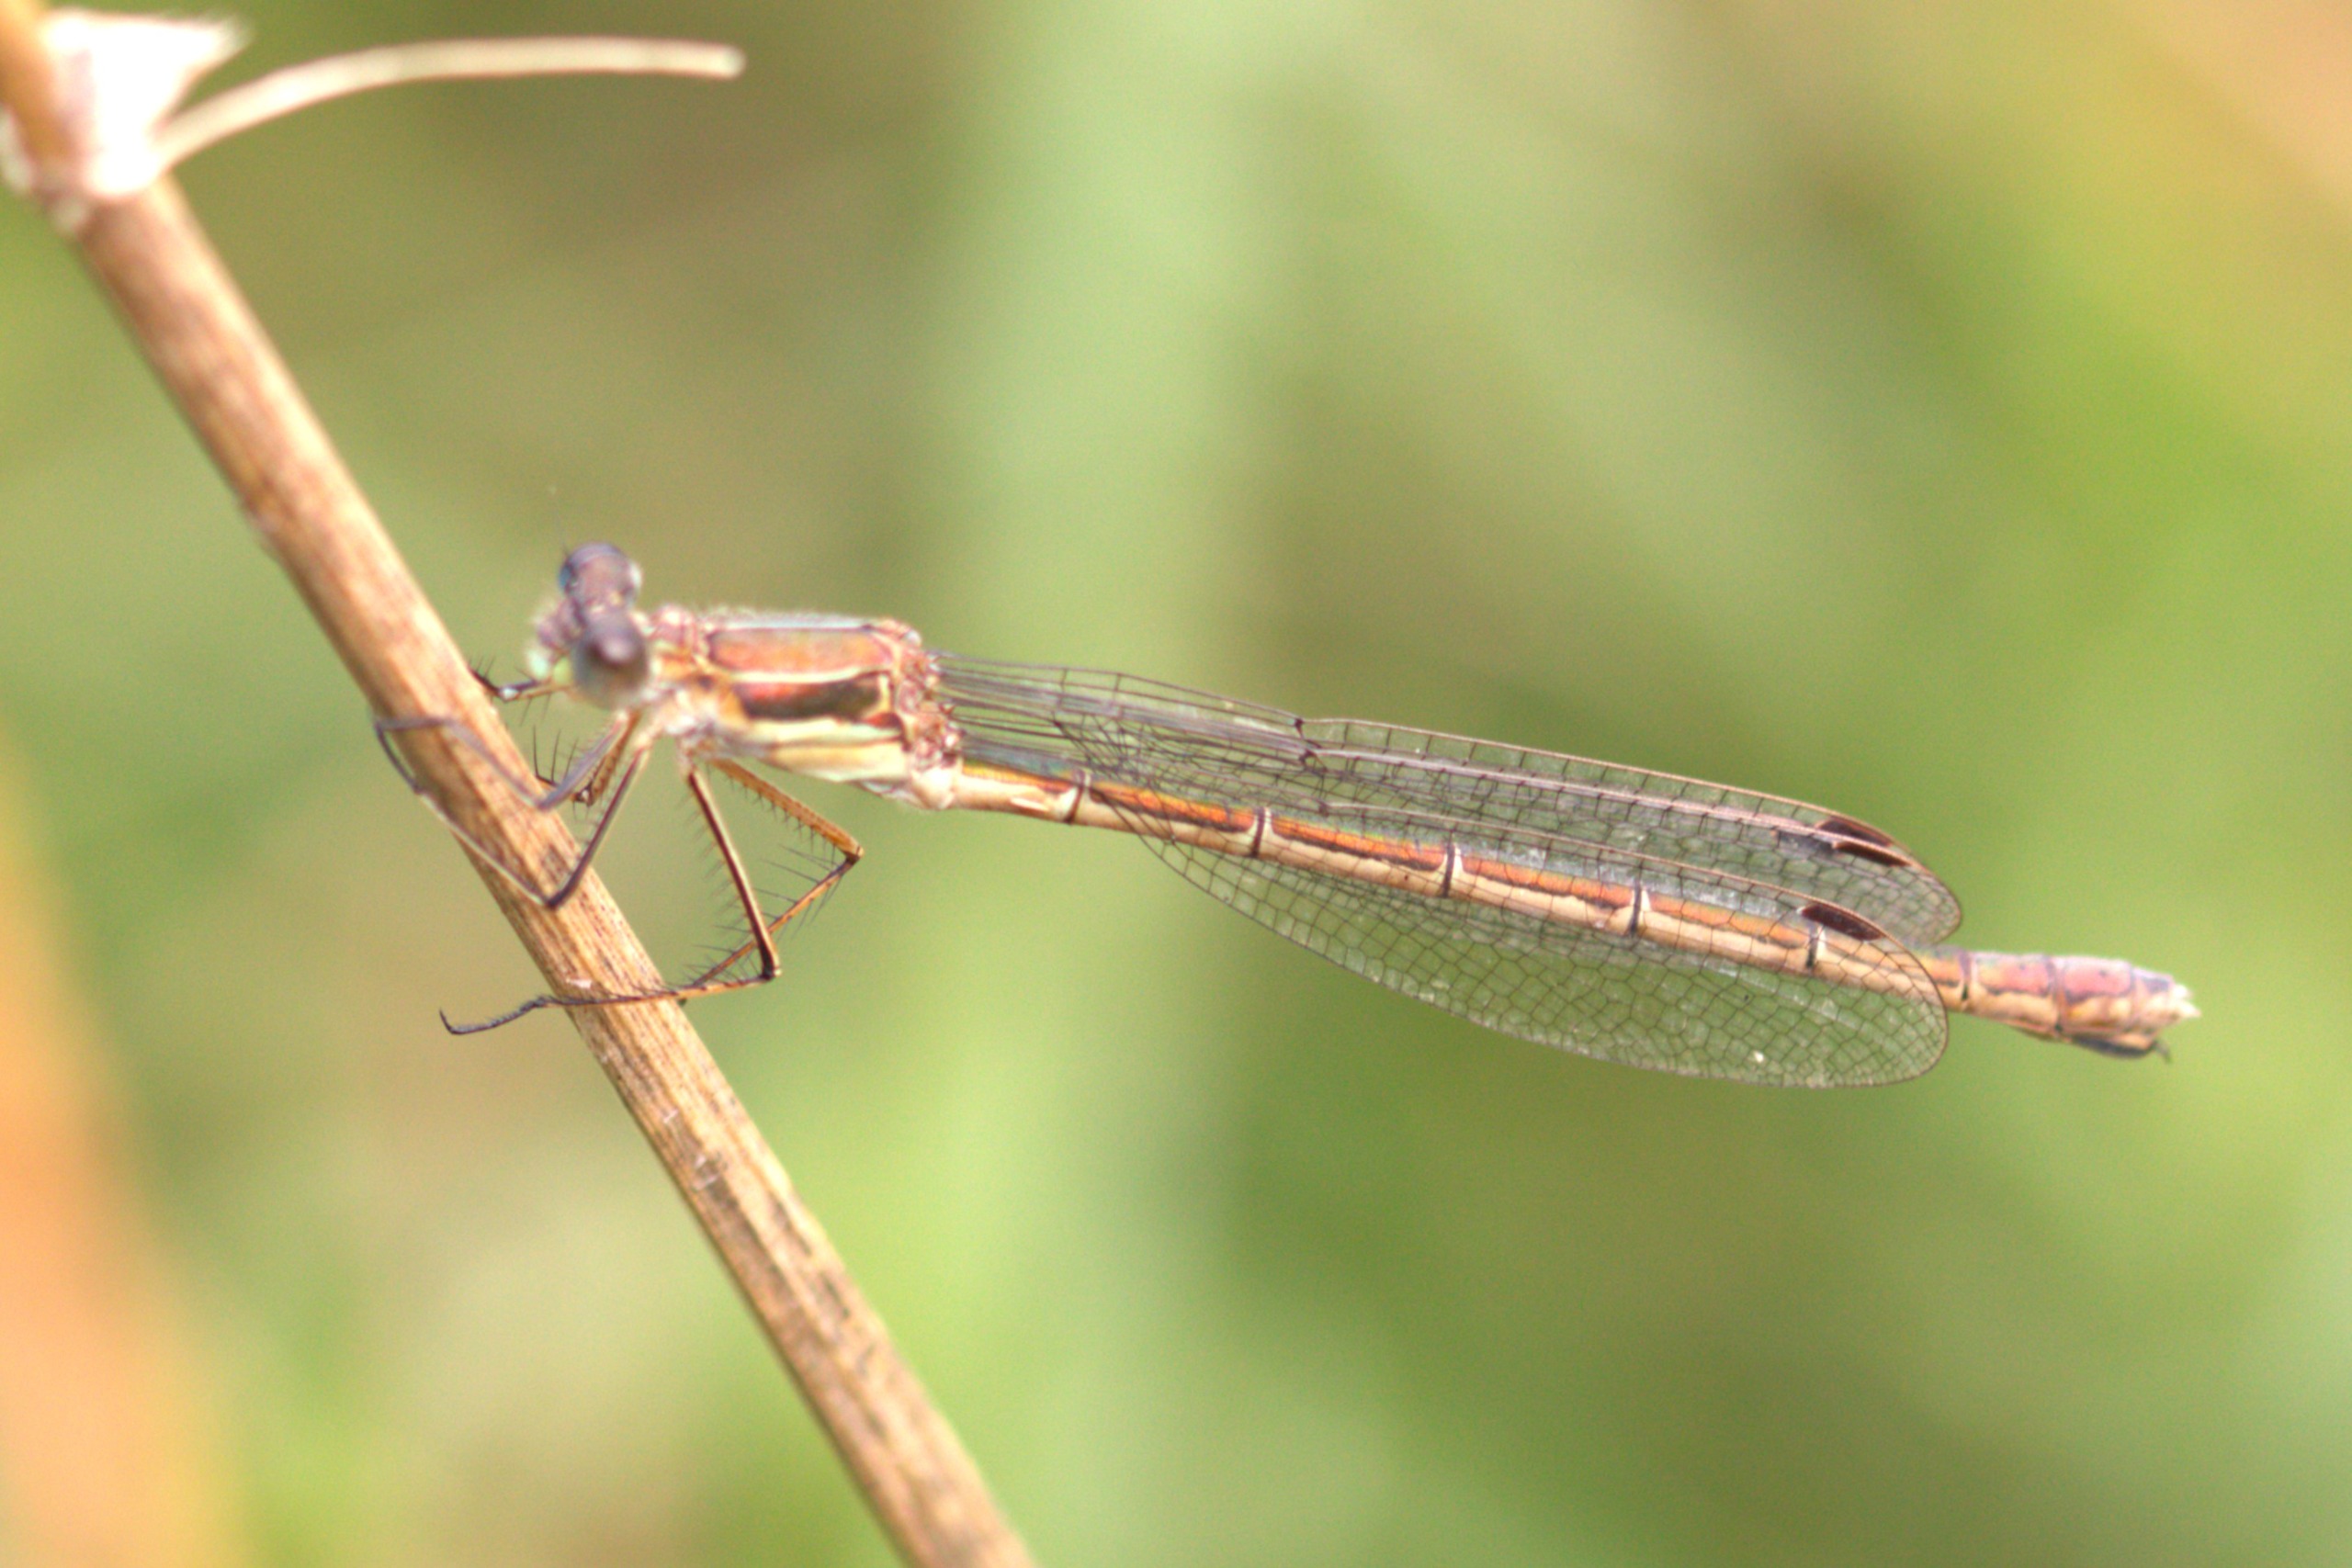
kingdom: Animalia
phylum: Arthropoda
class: Insecta
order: Odonata
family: Lestidae
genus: Lestes
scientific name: Lestes sponsa
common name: Almindelig kobbervandnymfe
